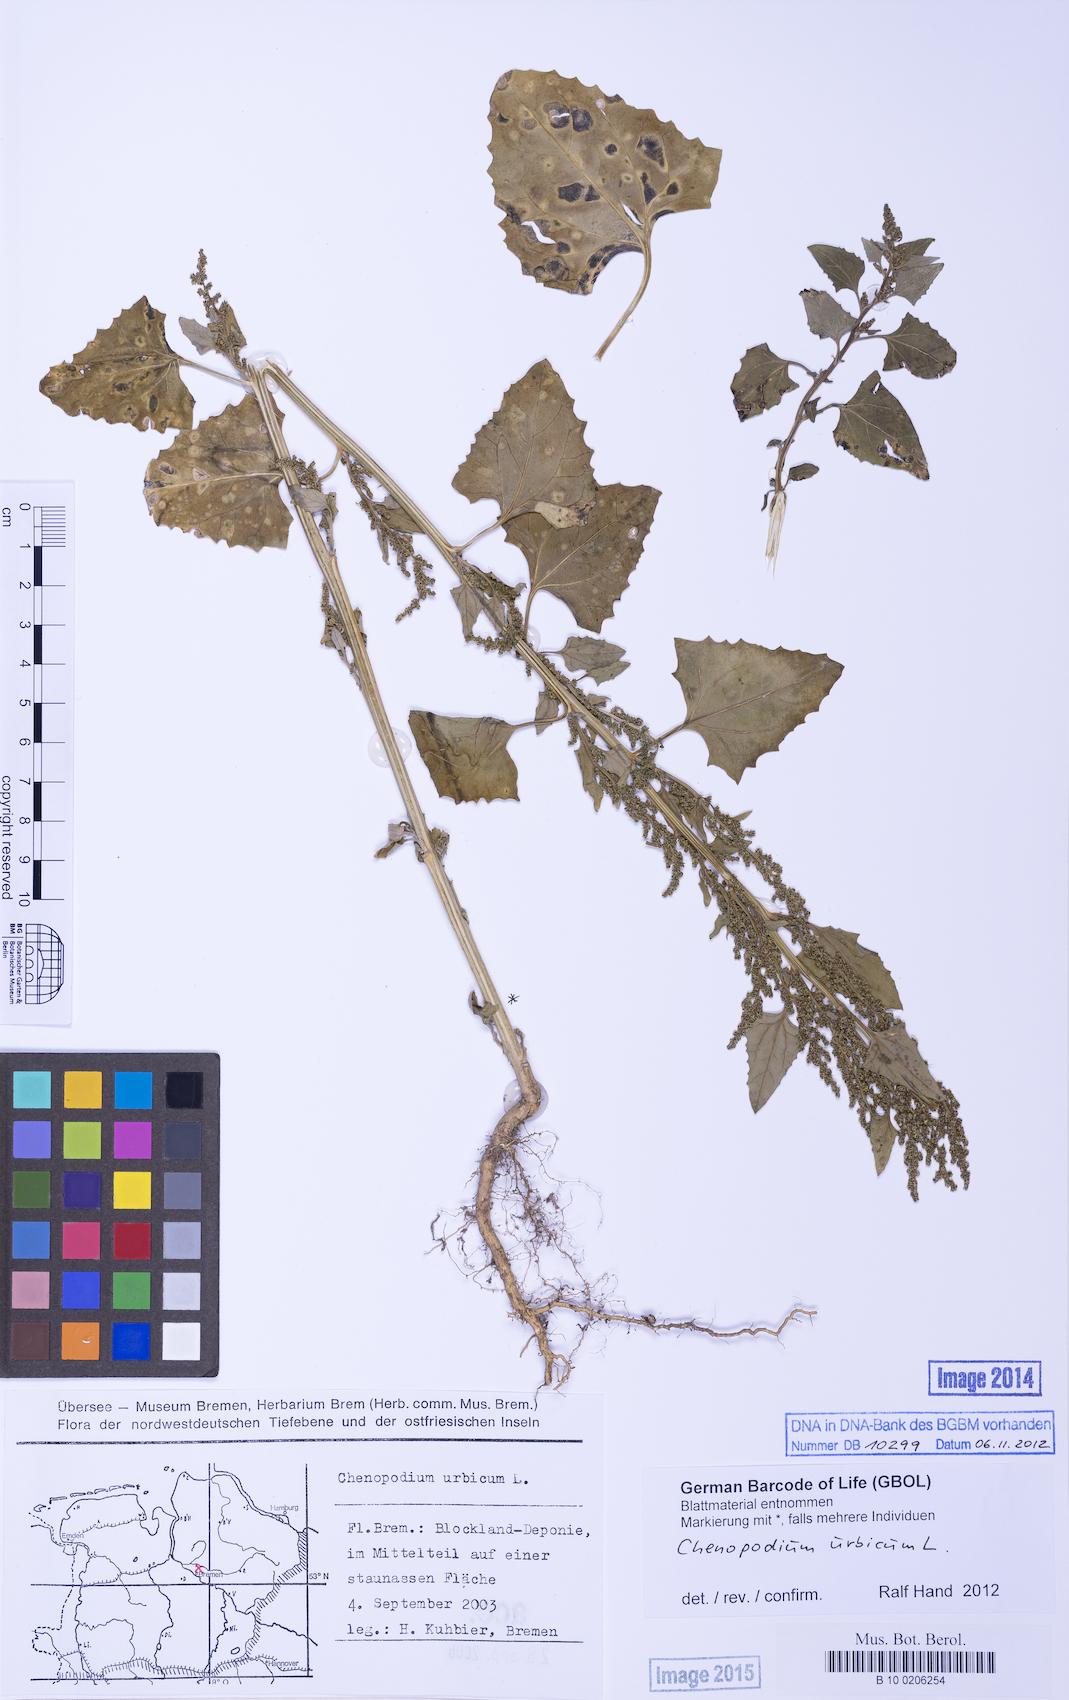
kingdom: Plantae
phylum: Tracheophyta
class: Magnoliopsida
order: Caryophyllales
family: Amaranthaceae
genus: Oxybasis
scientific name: Oxybasis urbica
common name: City goosefoot
